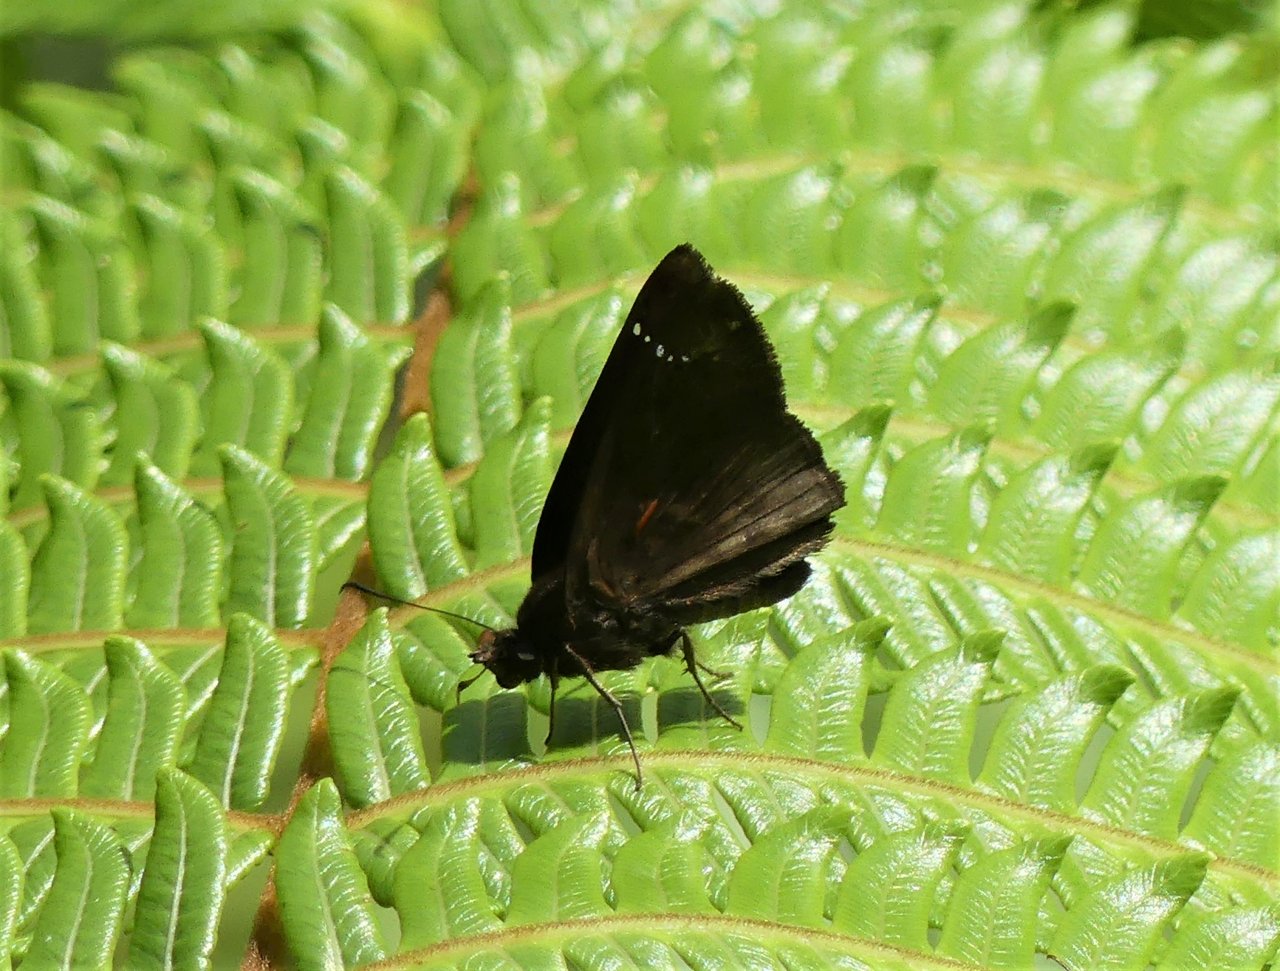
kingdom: Animalia
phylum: Arthropoda
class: Insecta
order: Lepidoptera
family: Hesperiidae
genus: Nisoniades
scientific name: Nisoniades rubescens
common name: Purplish-black Skipper
